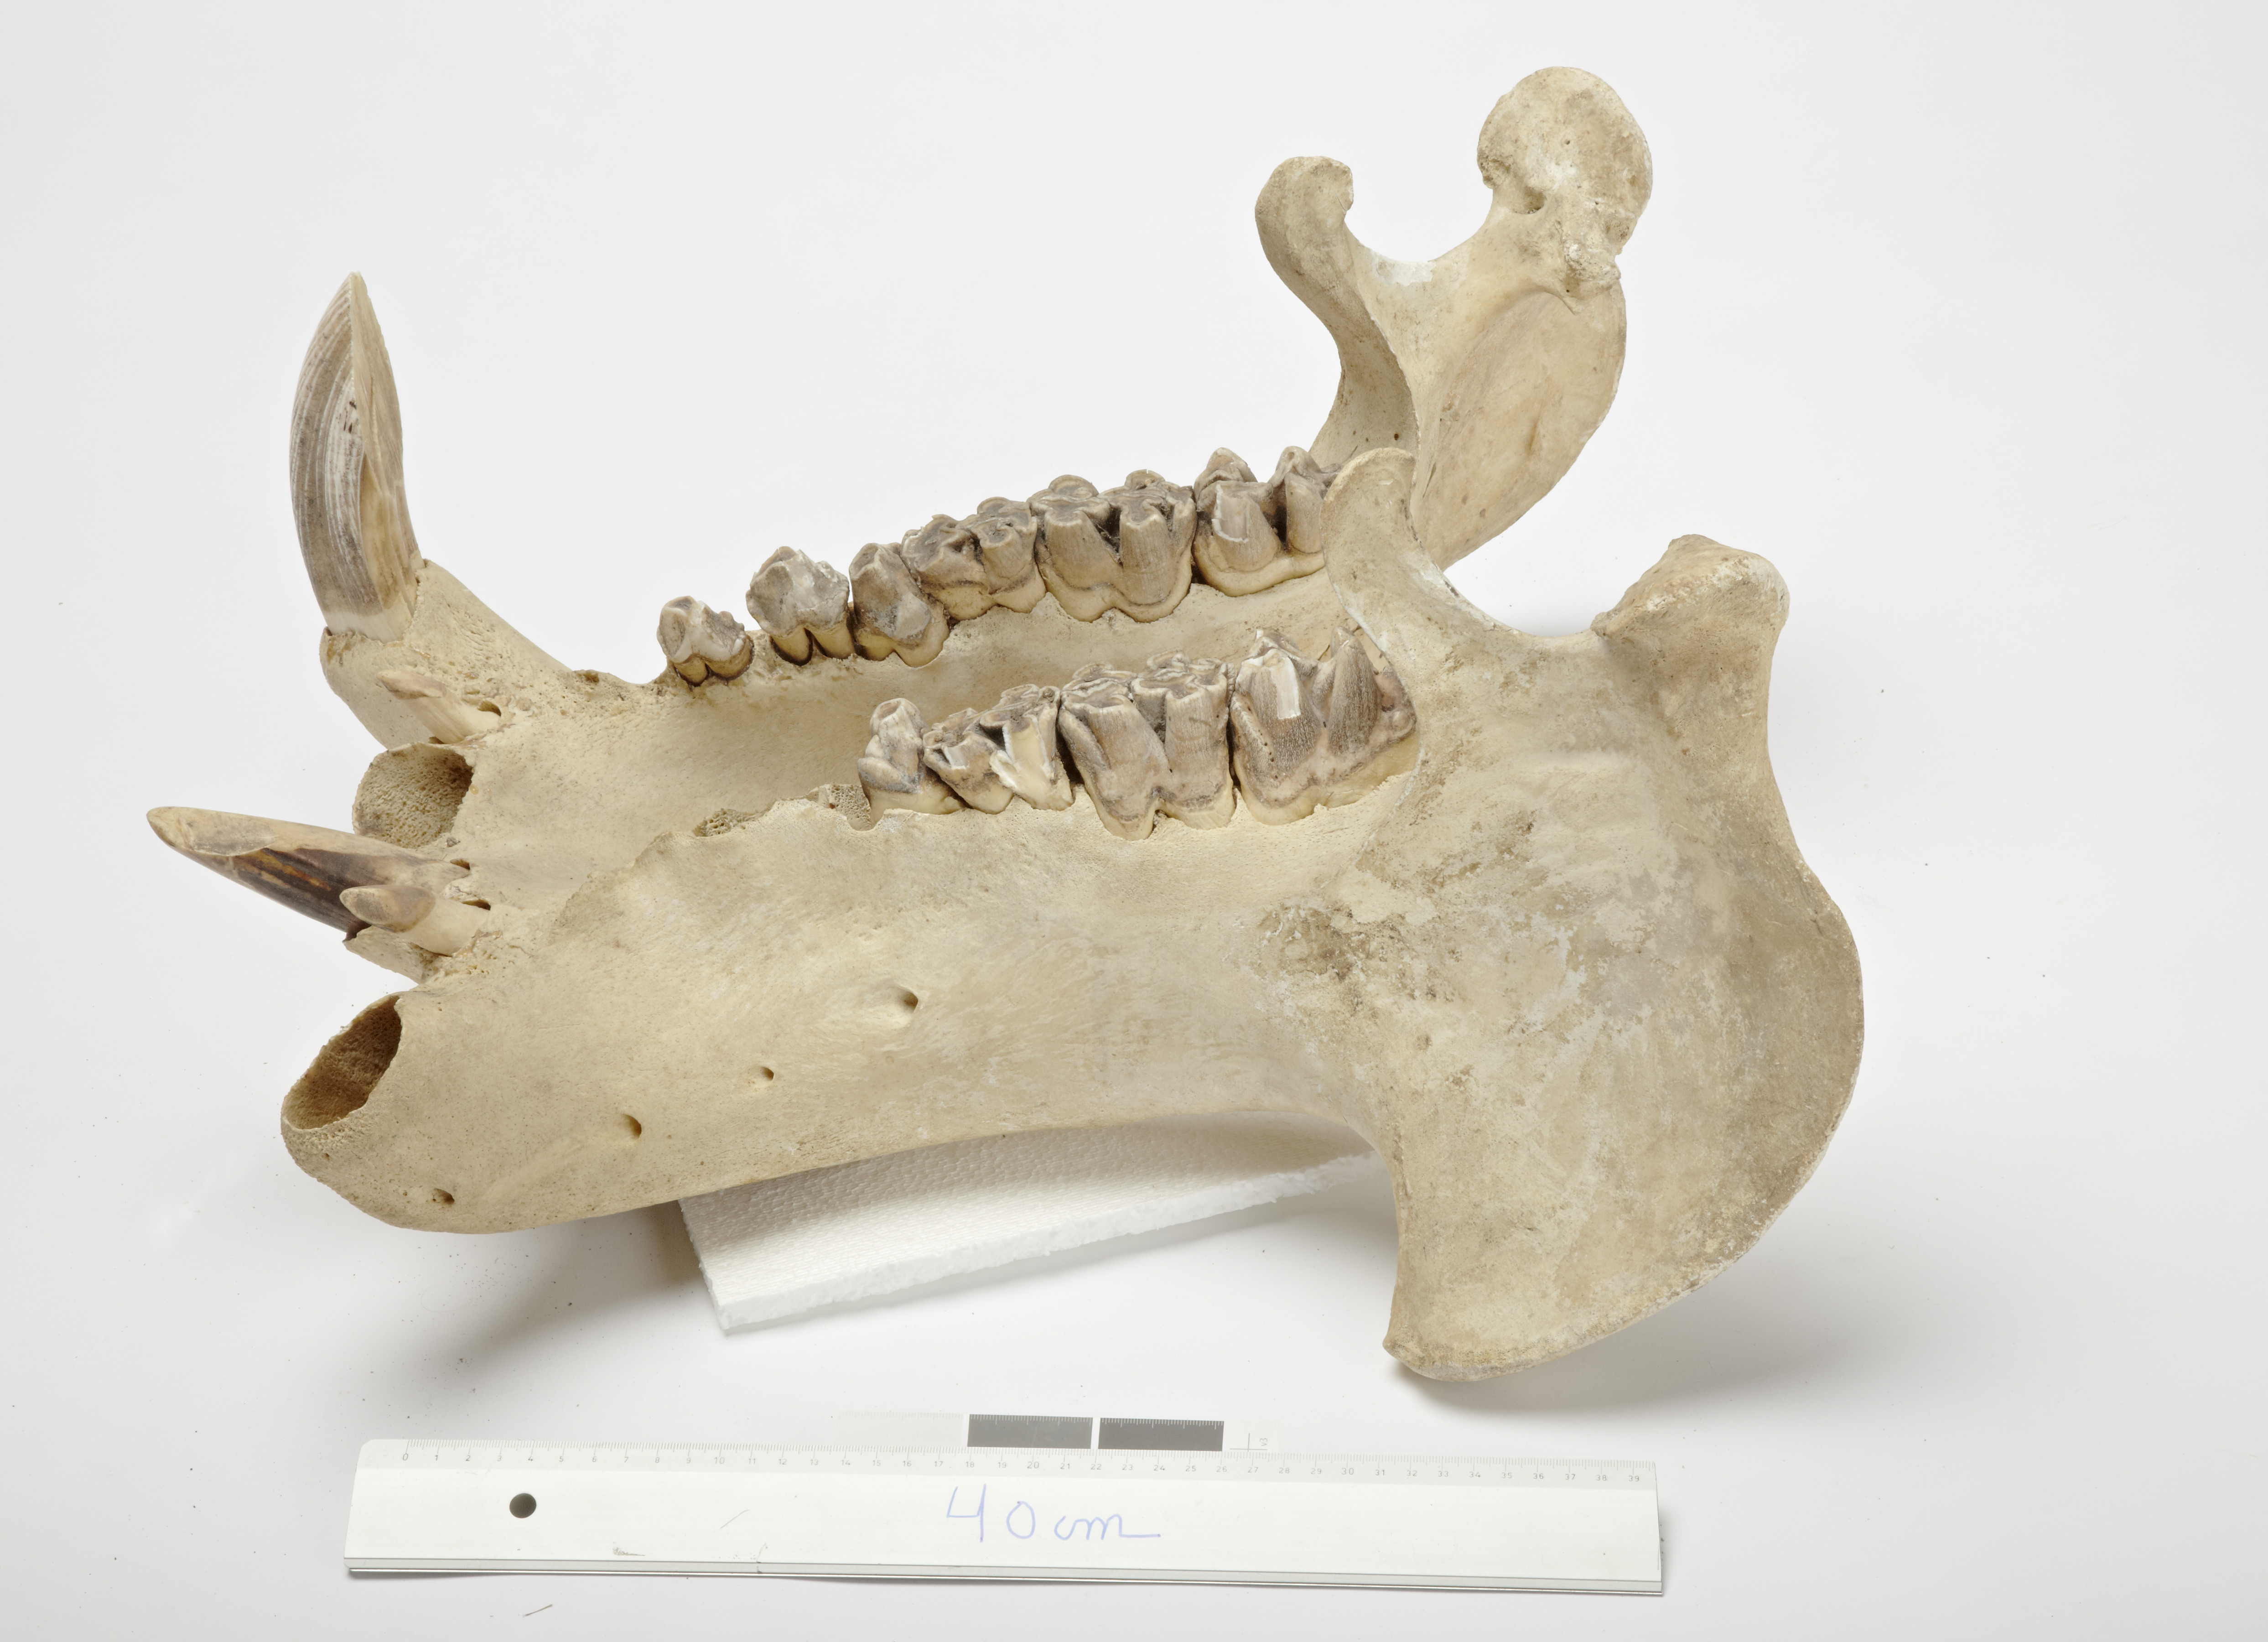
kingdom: Animalia
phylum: Chordata
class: Mammalia
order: Artiodactyla
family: Hippopotamidae
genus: Hippopotamus
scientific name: Hippopotamus
